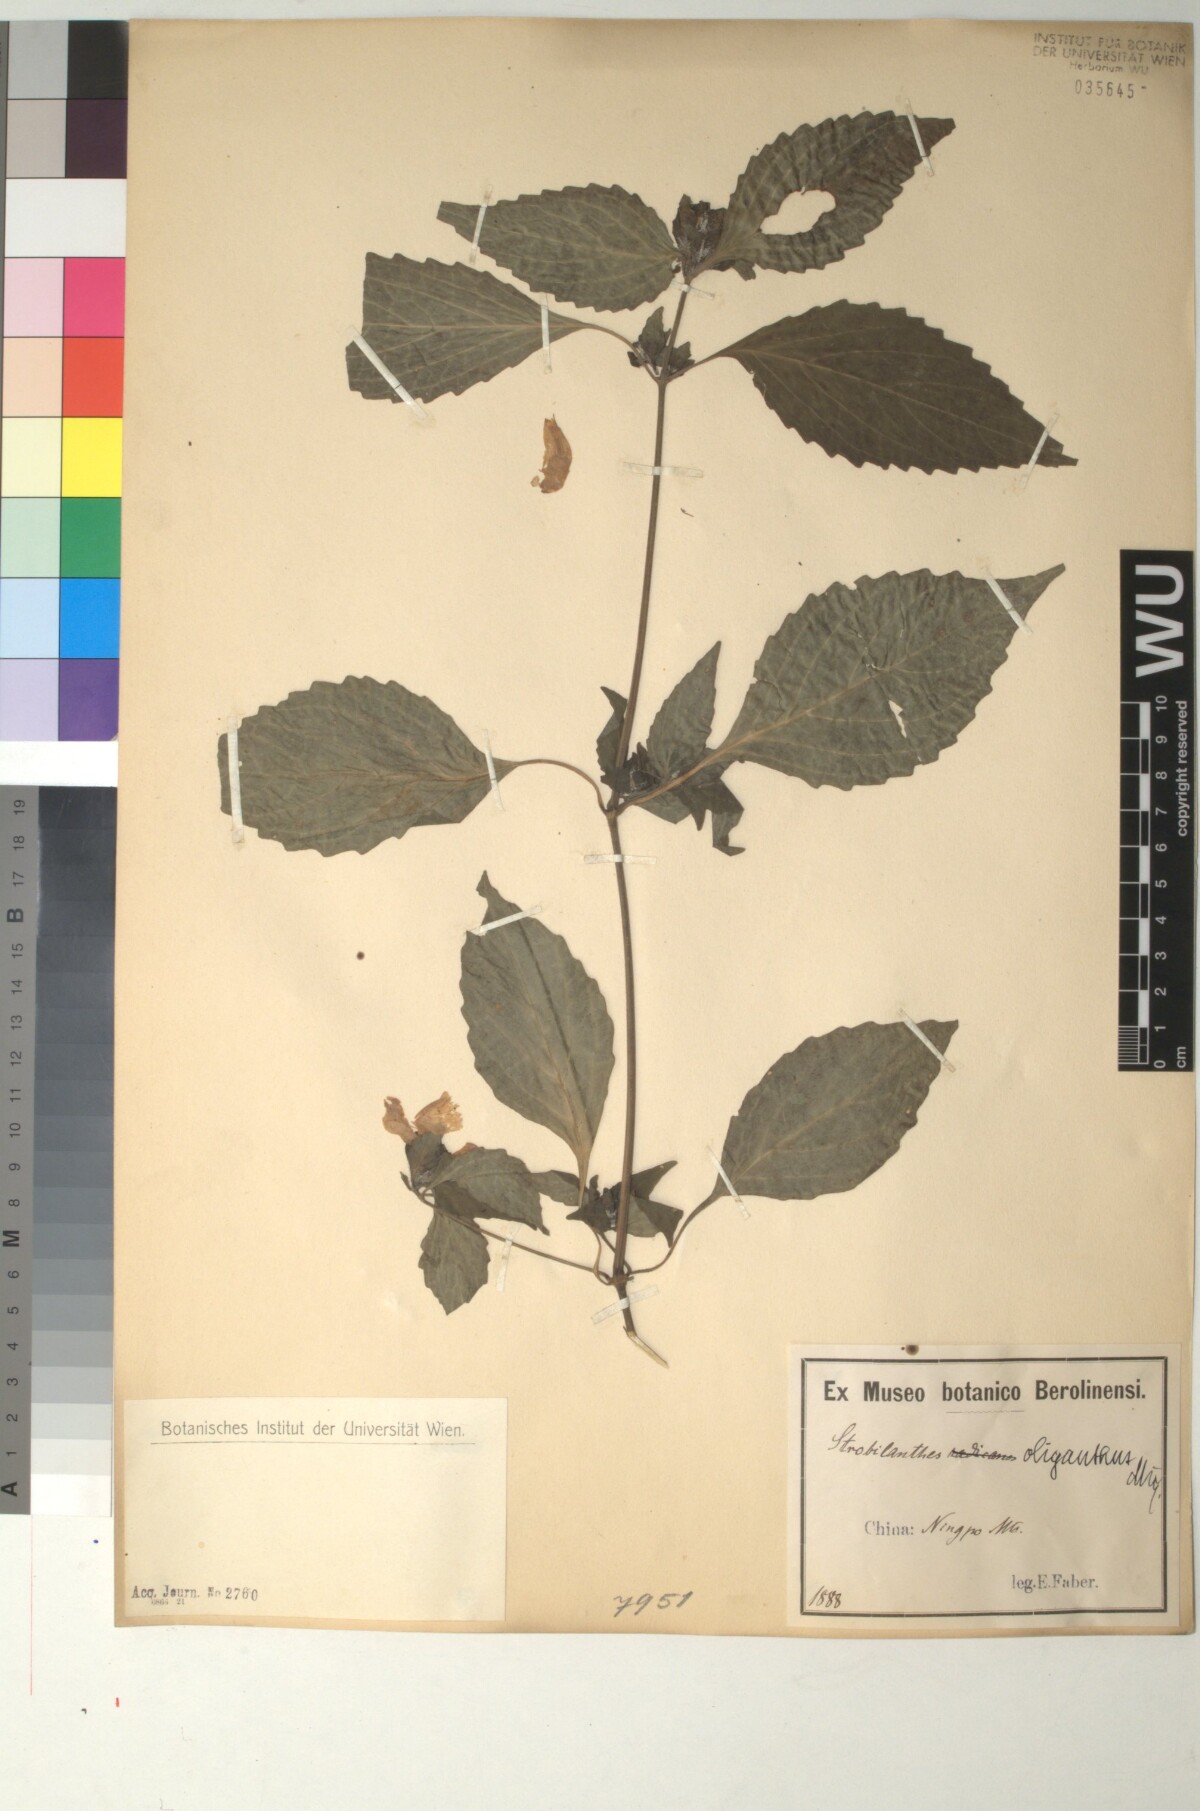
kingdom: Plantae
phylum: Tracheophyta
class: Magnoliopsida
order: Lamiales
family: Acanthaceae
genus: Strobilanthes
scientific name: Strobilanthes oligantha
